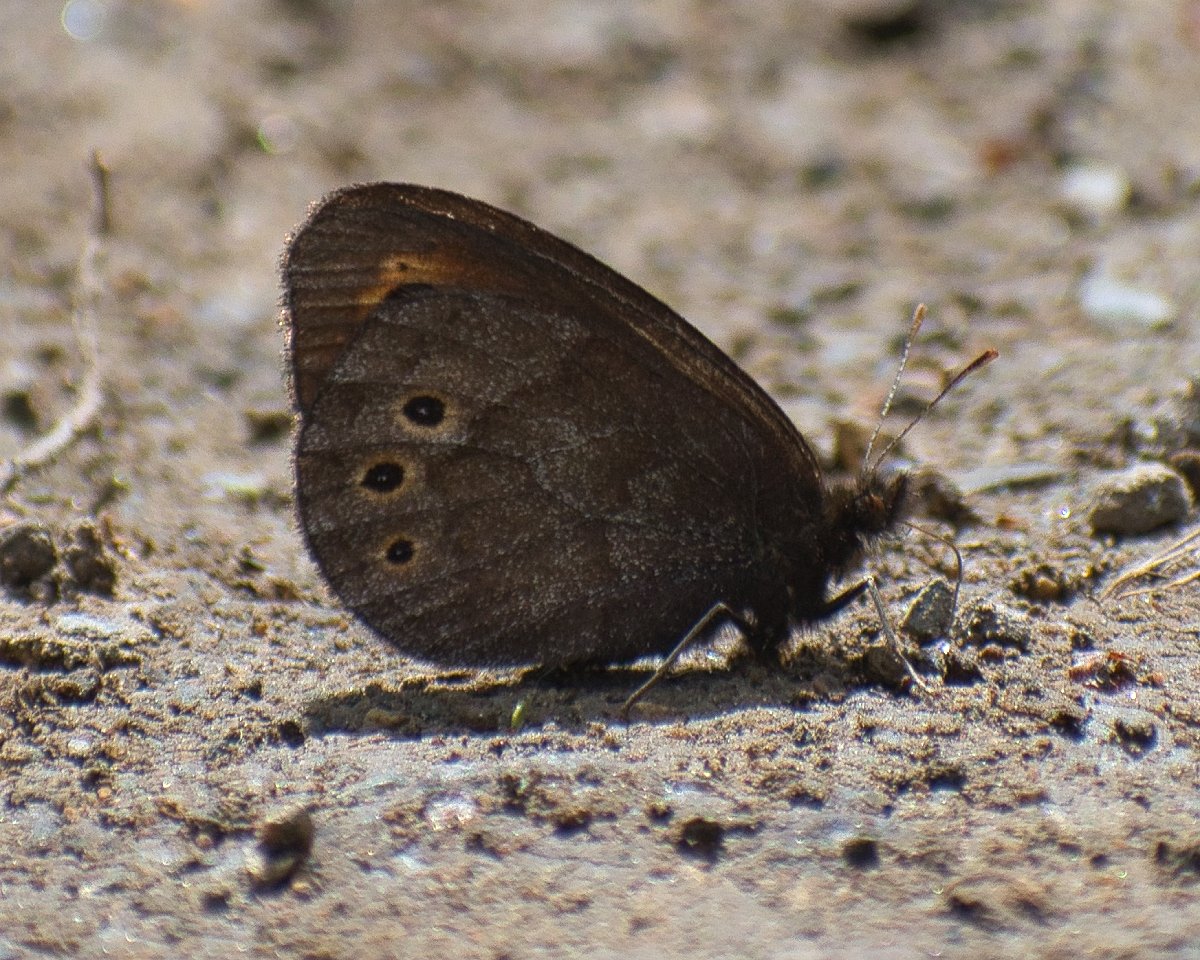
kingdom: Animalia
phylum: Arthropoda
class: Insecta
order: Lepidoptera
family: Nymphalidae
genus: Erebia
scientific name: Erebia epipsodea
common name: Common Alpine
